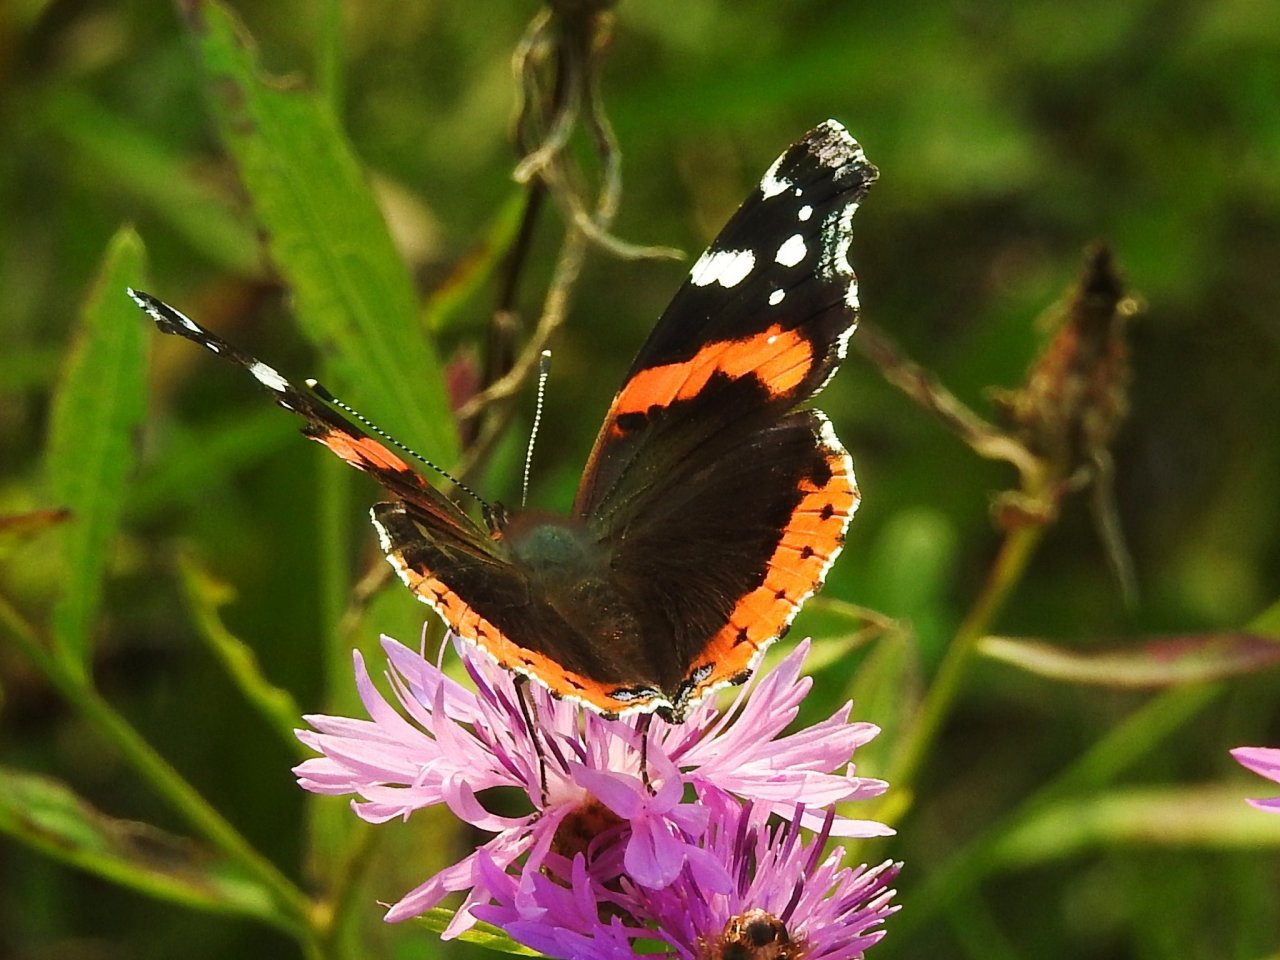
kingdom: Animalia
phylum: Arthropoda
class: Insecta
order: Lepidoptera
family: Nymphalidae
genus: Vanessa
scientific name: Vanessa atalanta
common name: Red Admiral
